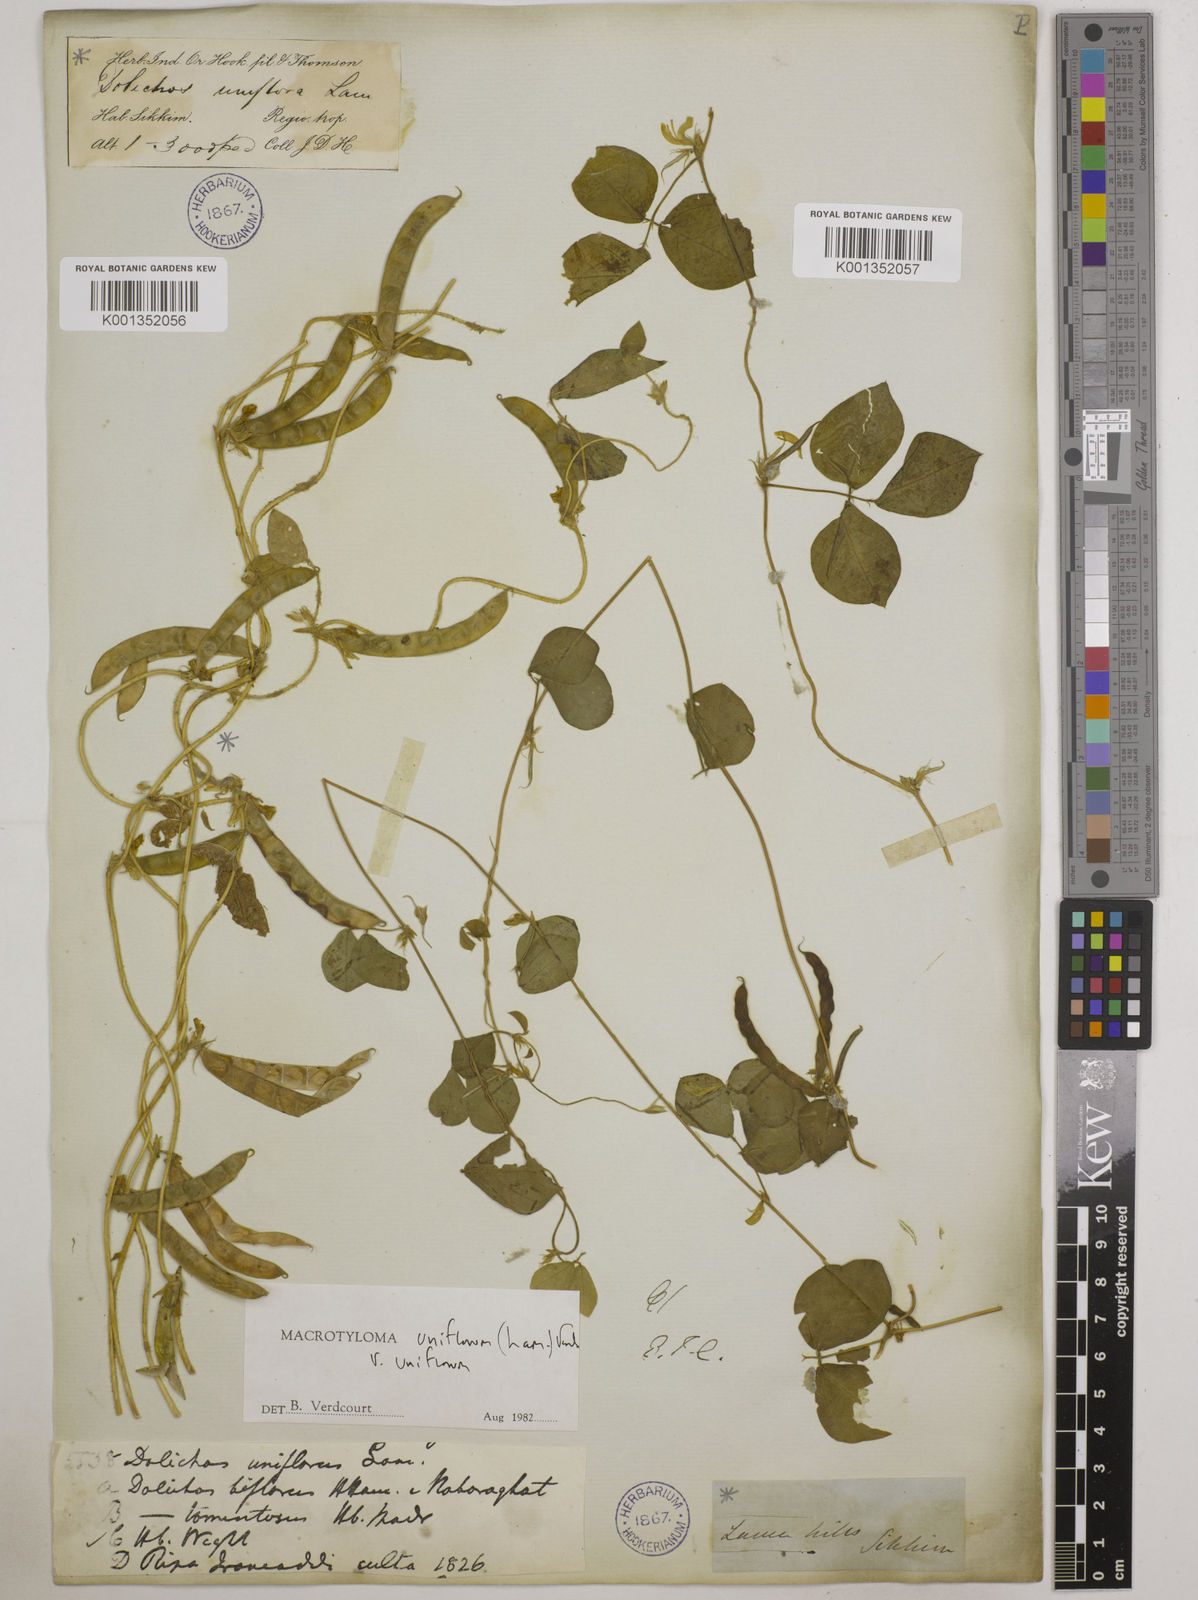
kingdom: Plantae
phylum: Tracheophyta
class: Magnoliopsida
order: Fabales
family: Fabaceae
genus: Macrotyloma
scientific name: Macrotyloma uniflorum
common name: Horse gram
